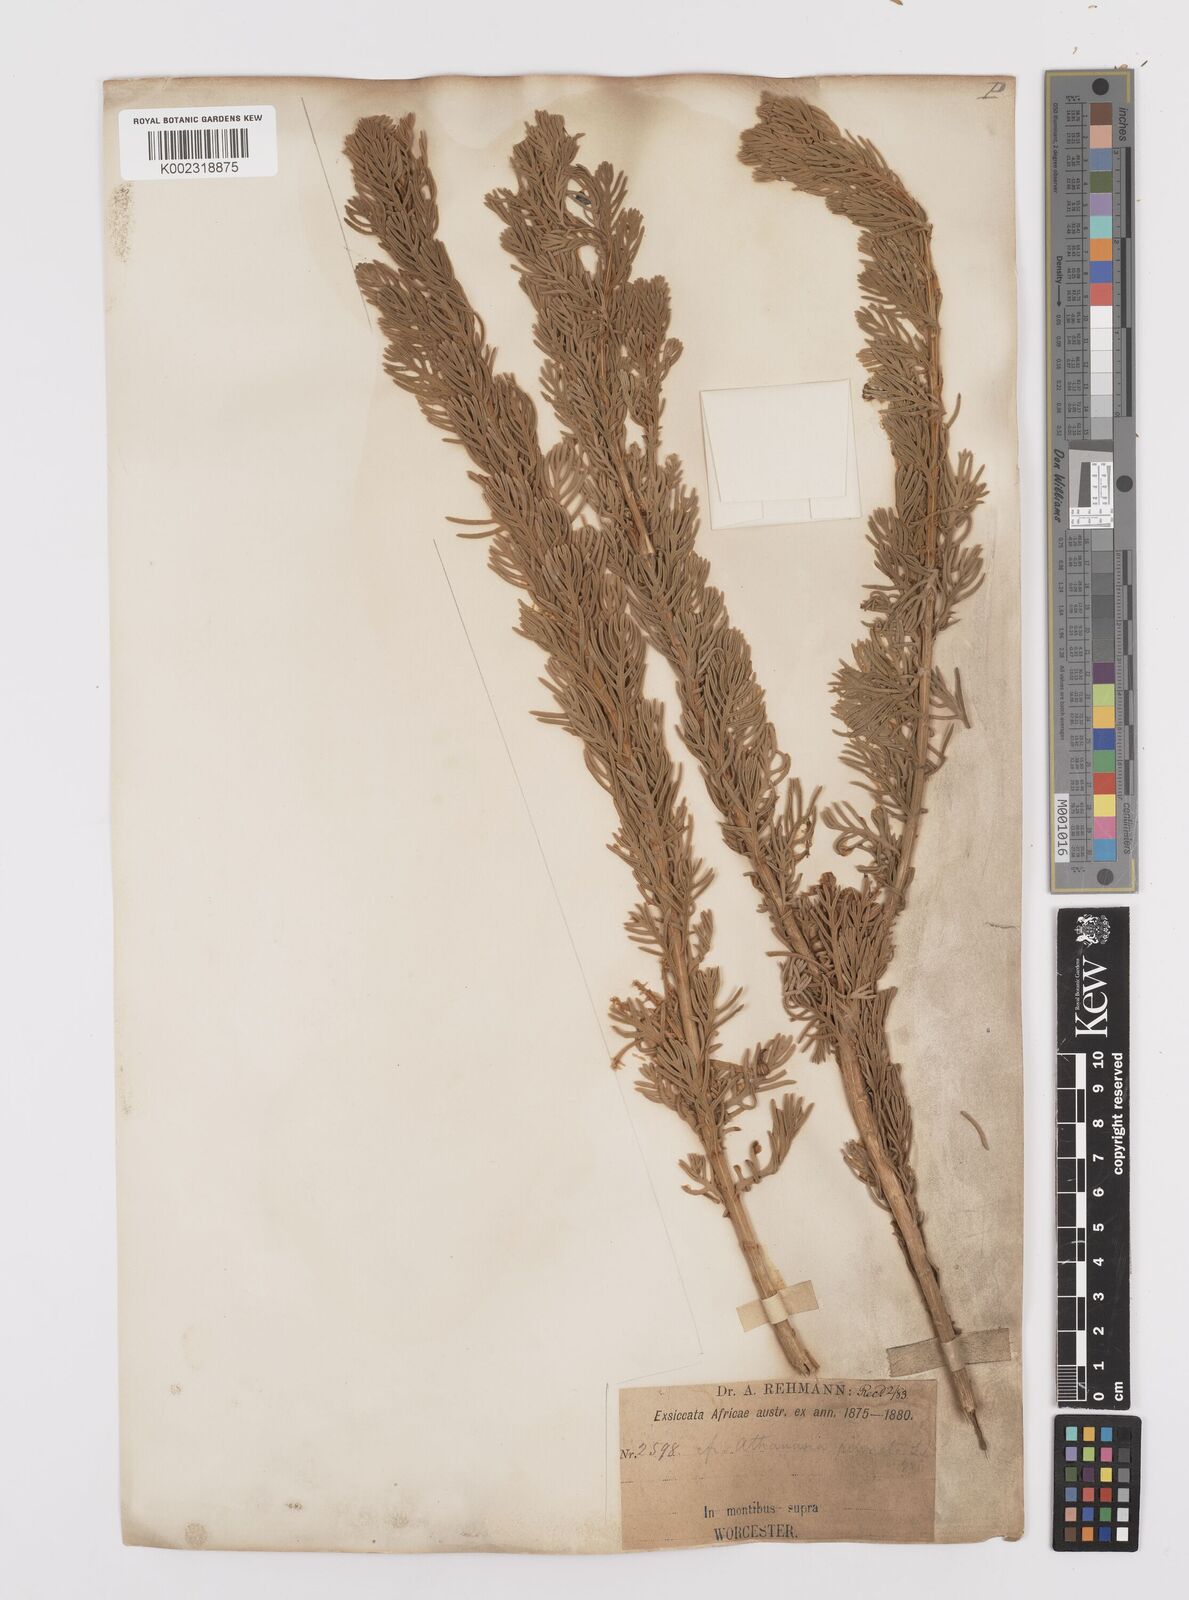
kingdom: Plantae
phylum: Tracheophyta
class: Magnoliopsida
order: Asterales
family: Asteraceae
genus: Hymenolepis
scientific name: Hymenolepis speciosa
